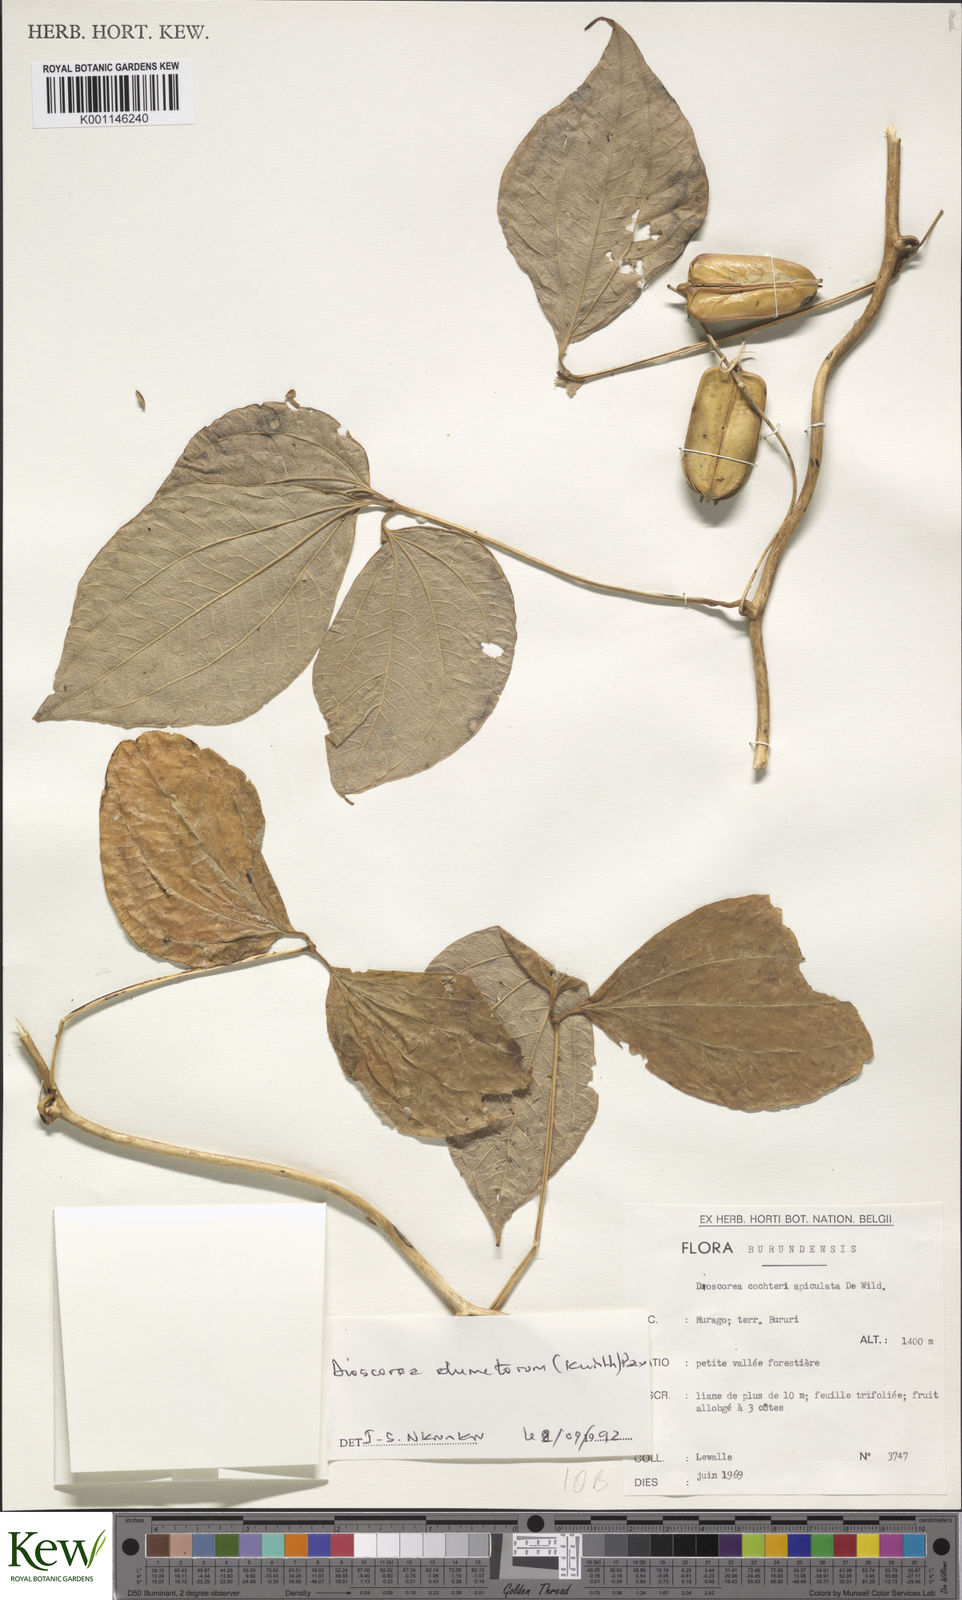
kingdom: Plantae
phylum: Tracheophyta
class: Liliopsida
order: Dioscoreales
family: Dioscoreaceae
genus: Dioscorea
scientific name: Dioscorea dumetorum
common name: African bitter yam
